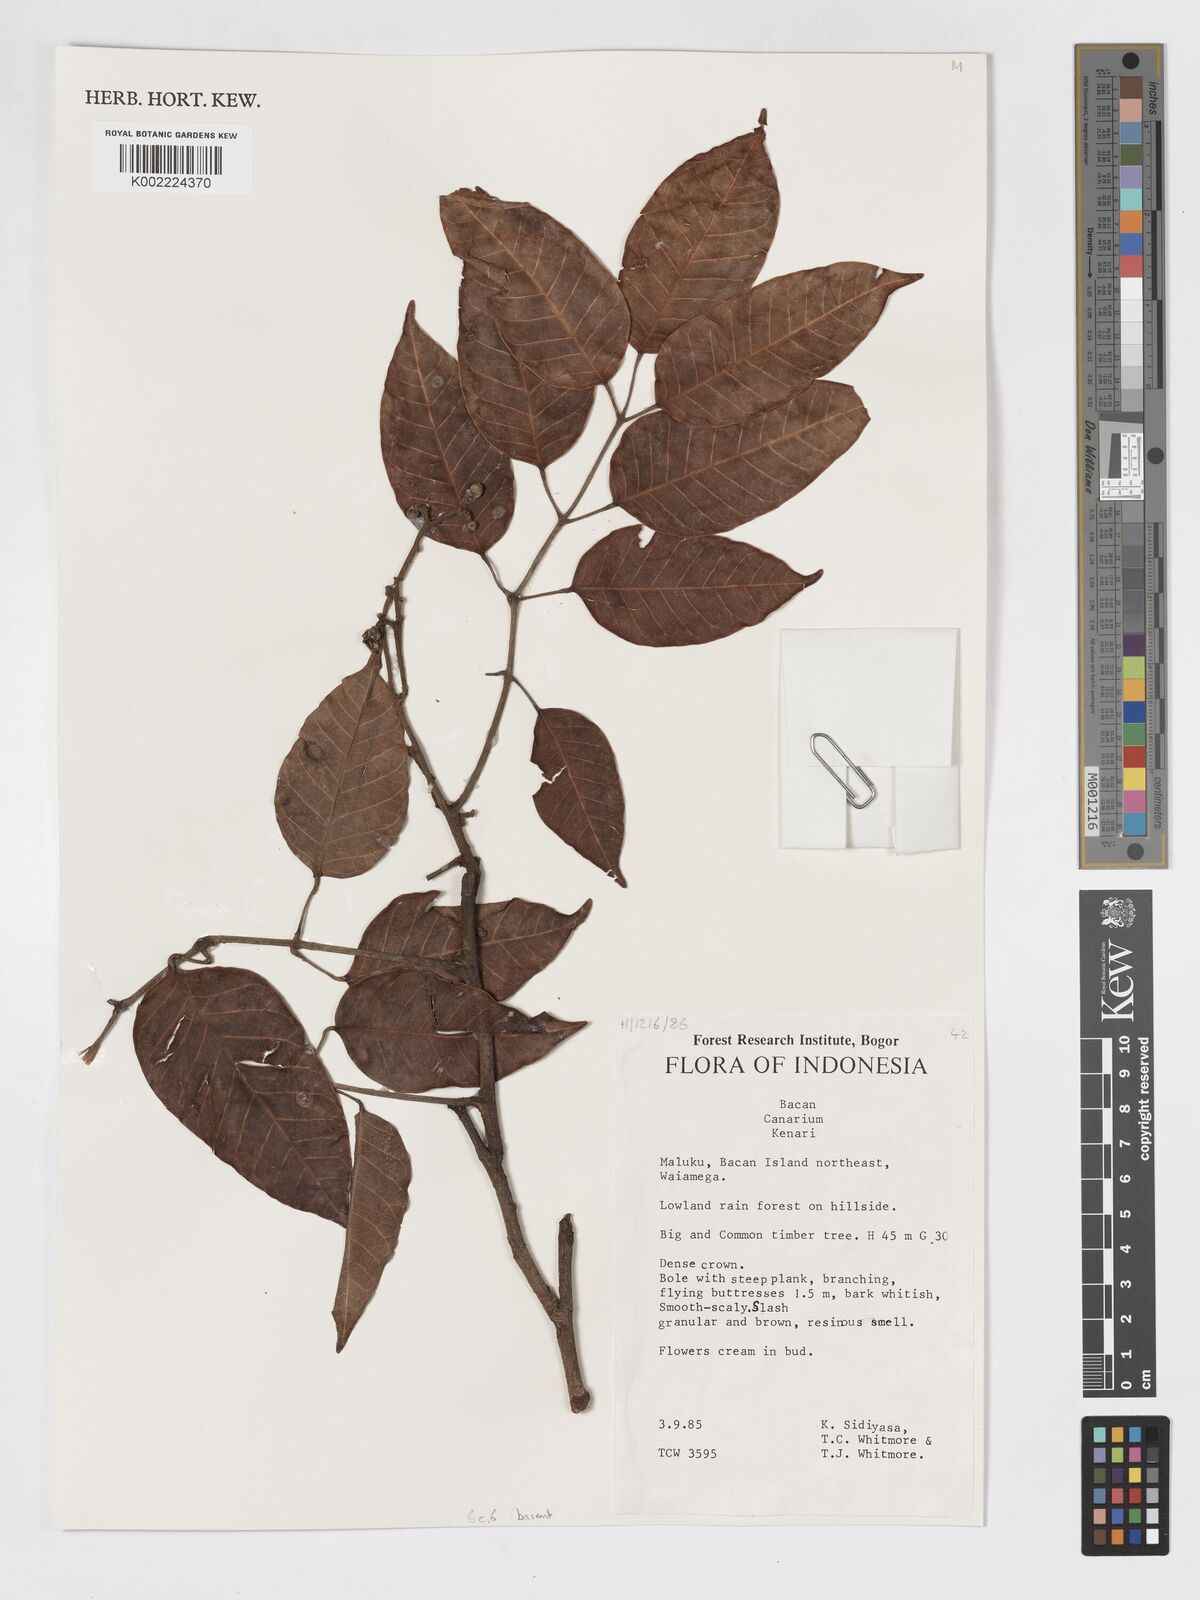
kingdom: Plantae
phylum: Tracheophyta
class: Magnoliopsida
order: Sapindales
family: Burseraceae
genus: Canarium
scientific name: Canarium
